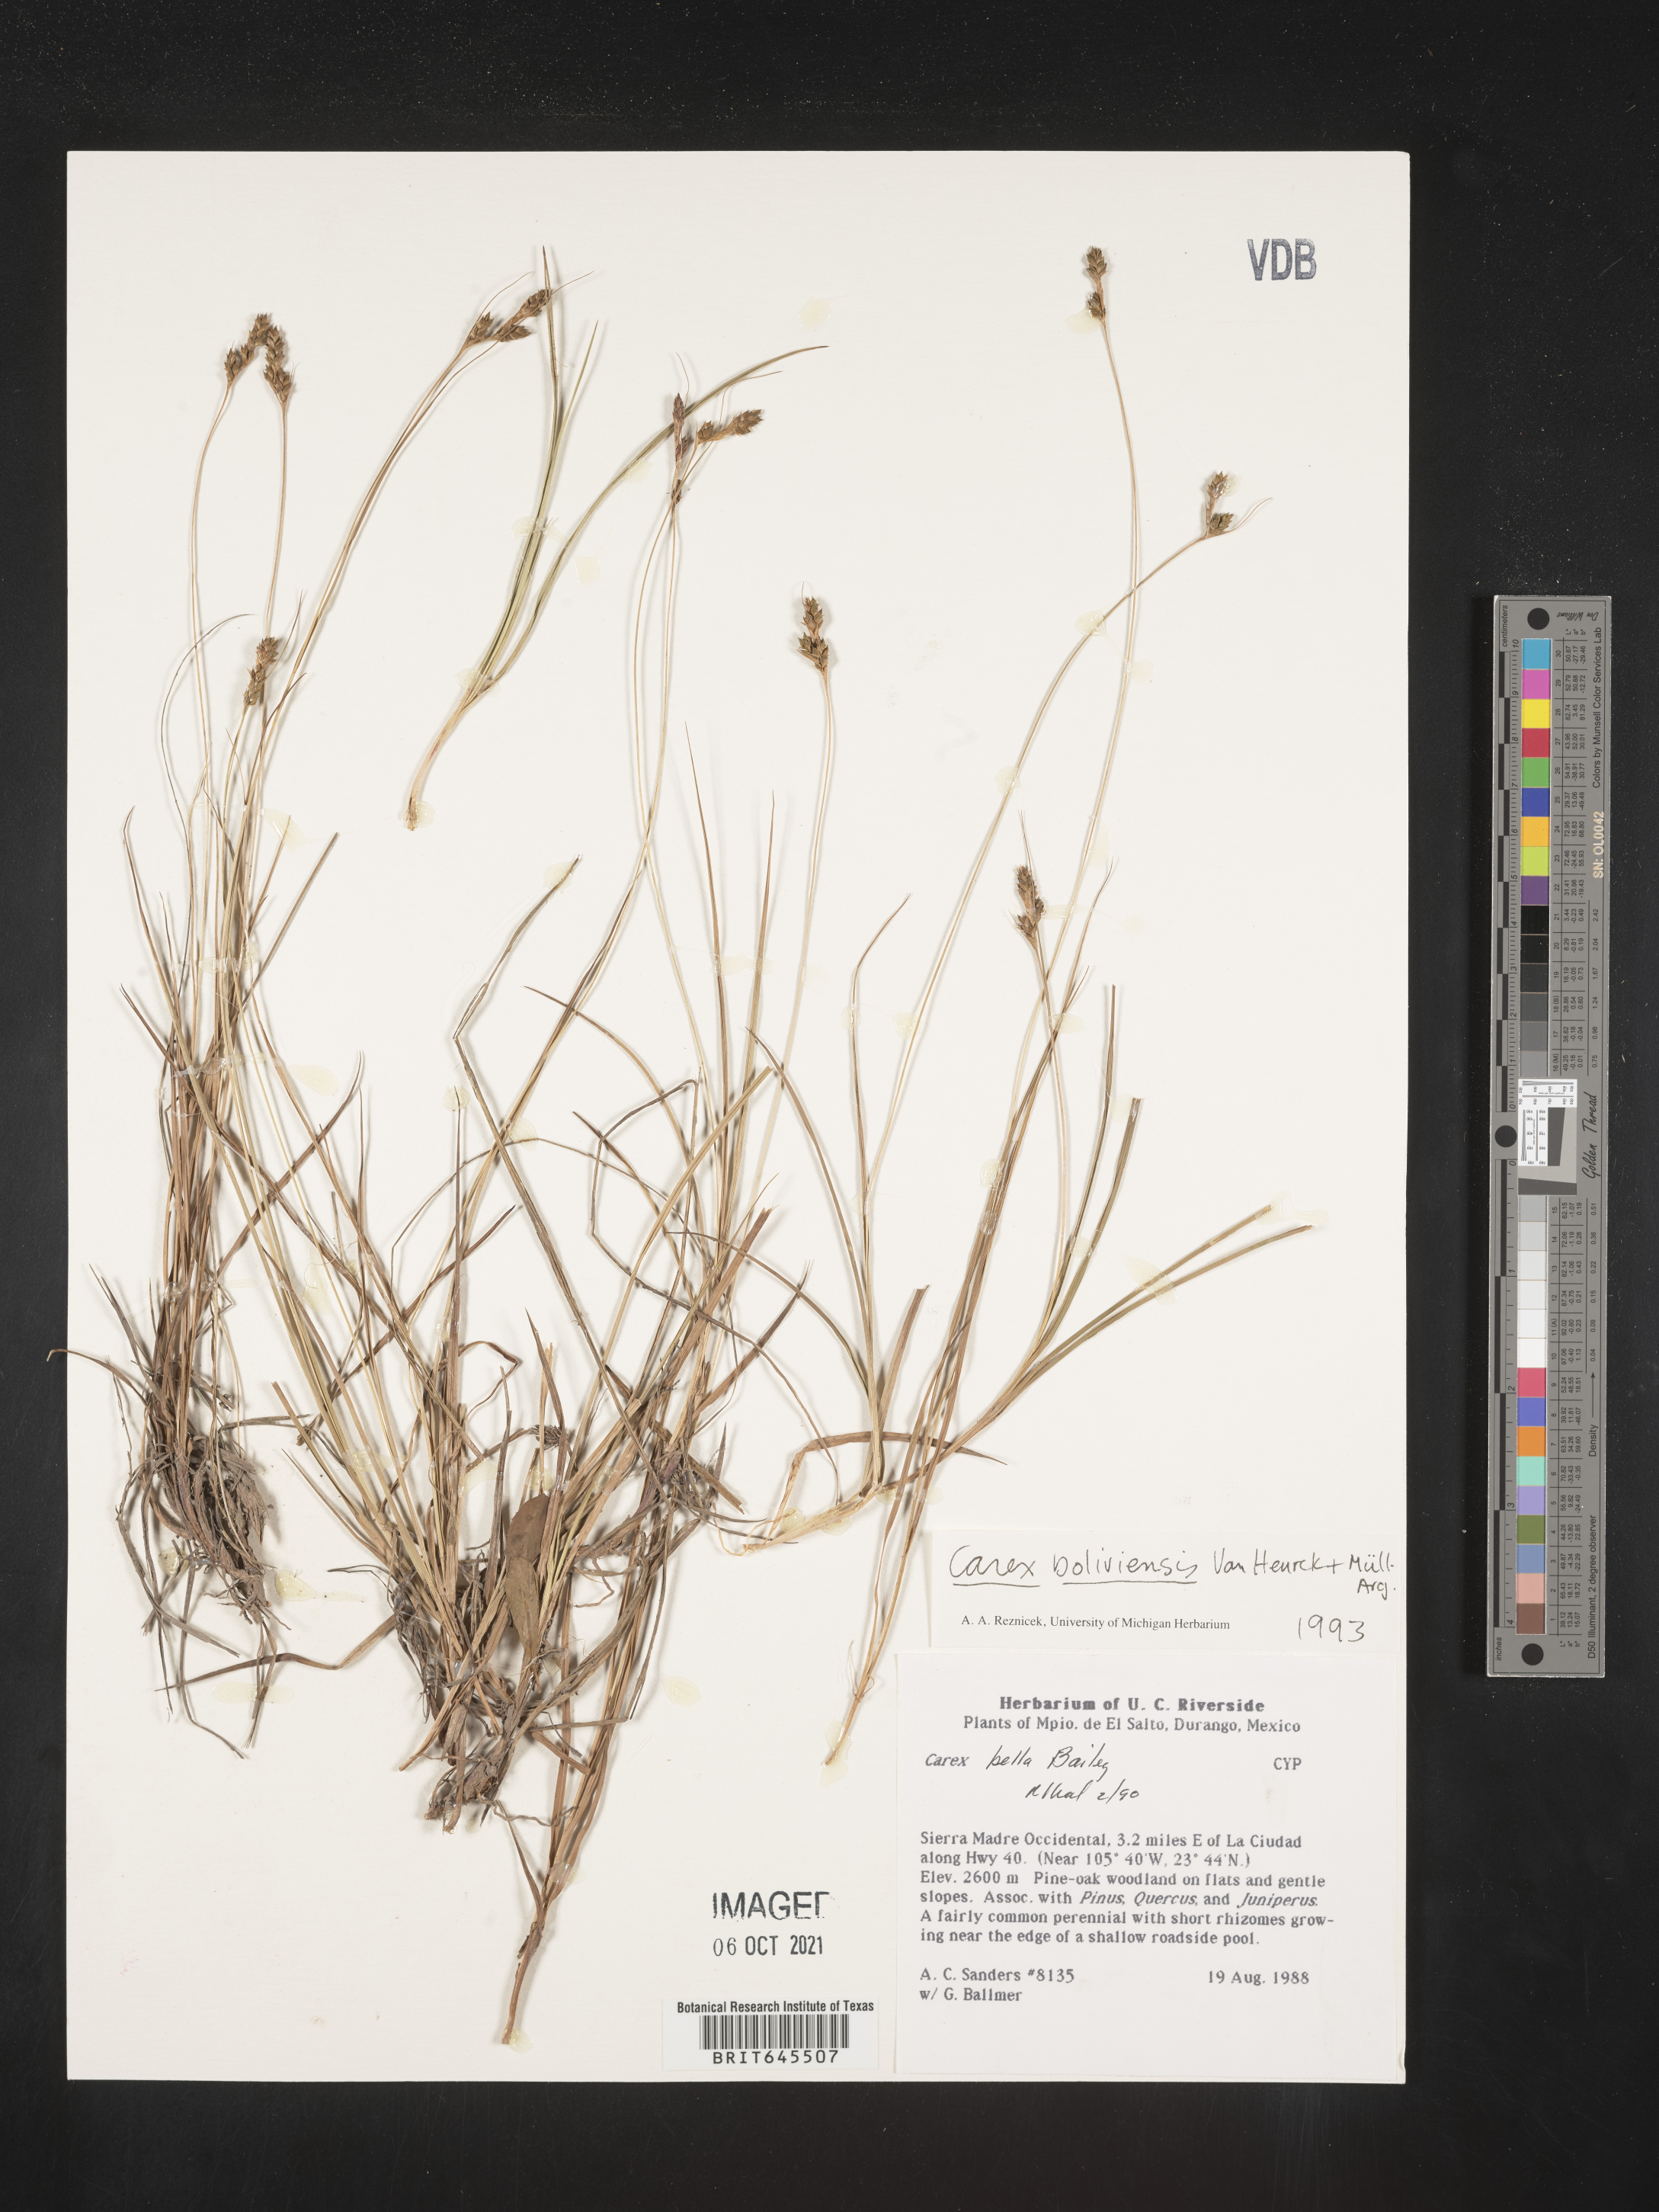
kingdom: Plantae
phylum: Tracheophyta
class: Liliopsida
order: Poales
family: Cyperaceae
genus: Carex
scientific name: Carex
